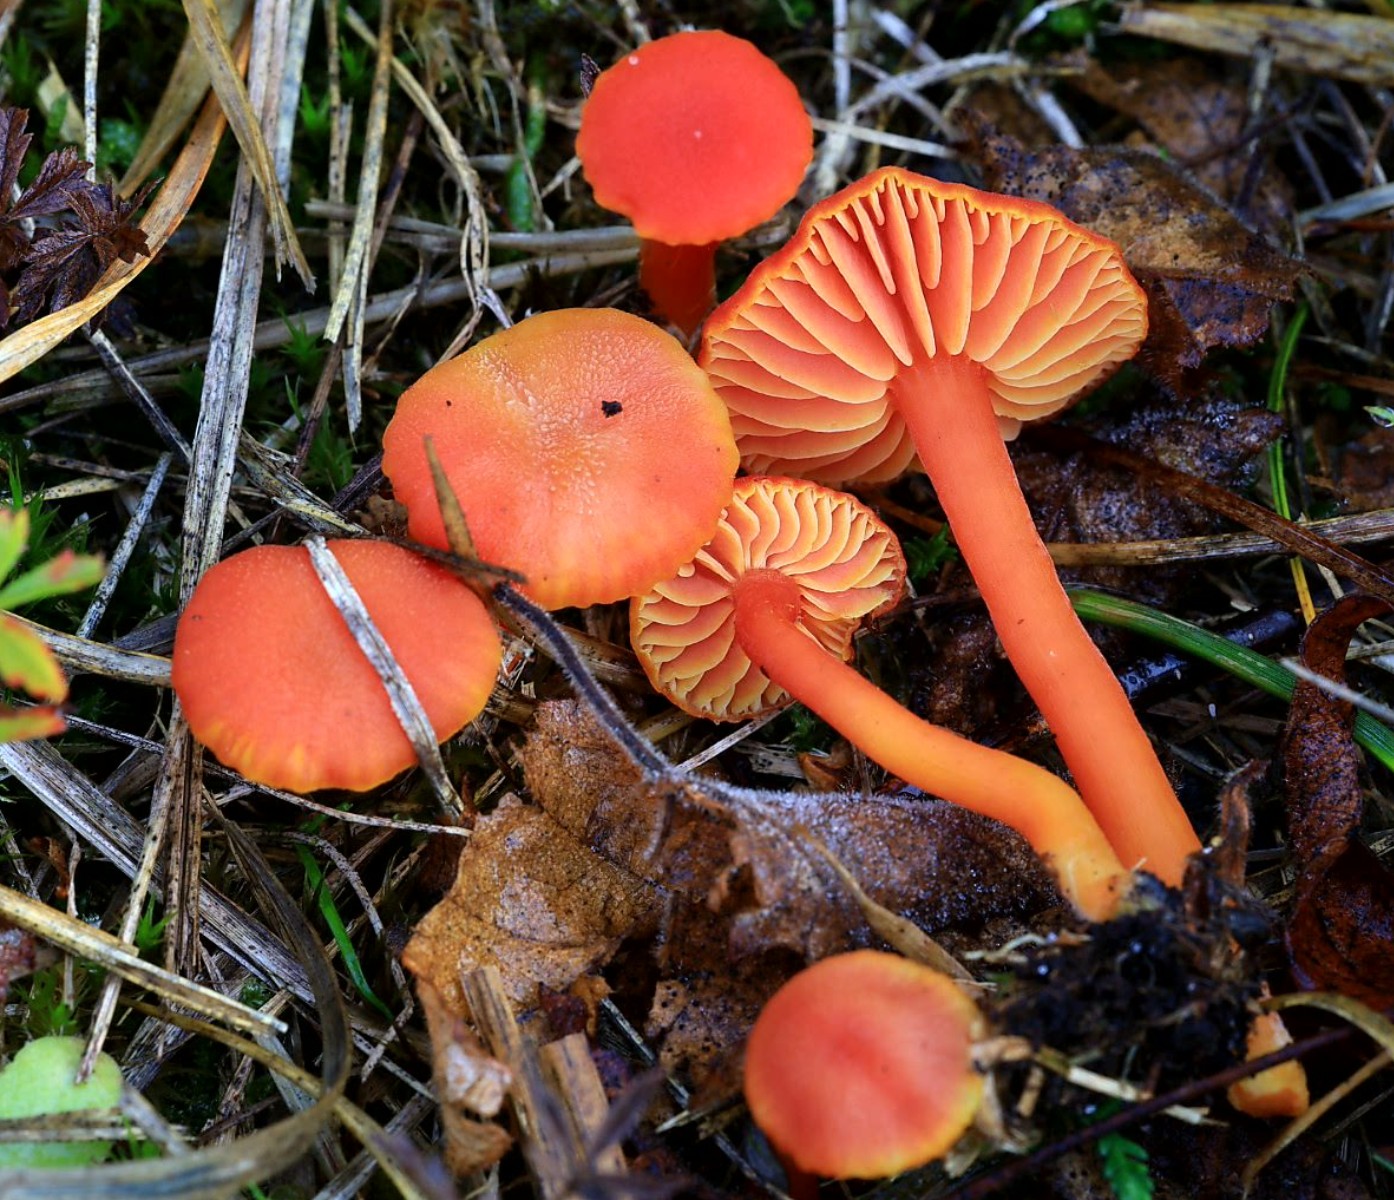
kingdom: Fungi
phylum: Basidiomycota
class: Agaricomycetes
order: Agaricales
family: Hygrophoraceae
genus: Hygrocybe
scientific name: Hygrocybe miniata
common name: mønje-vokshat
